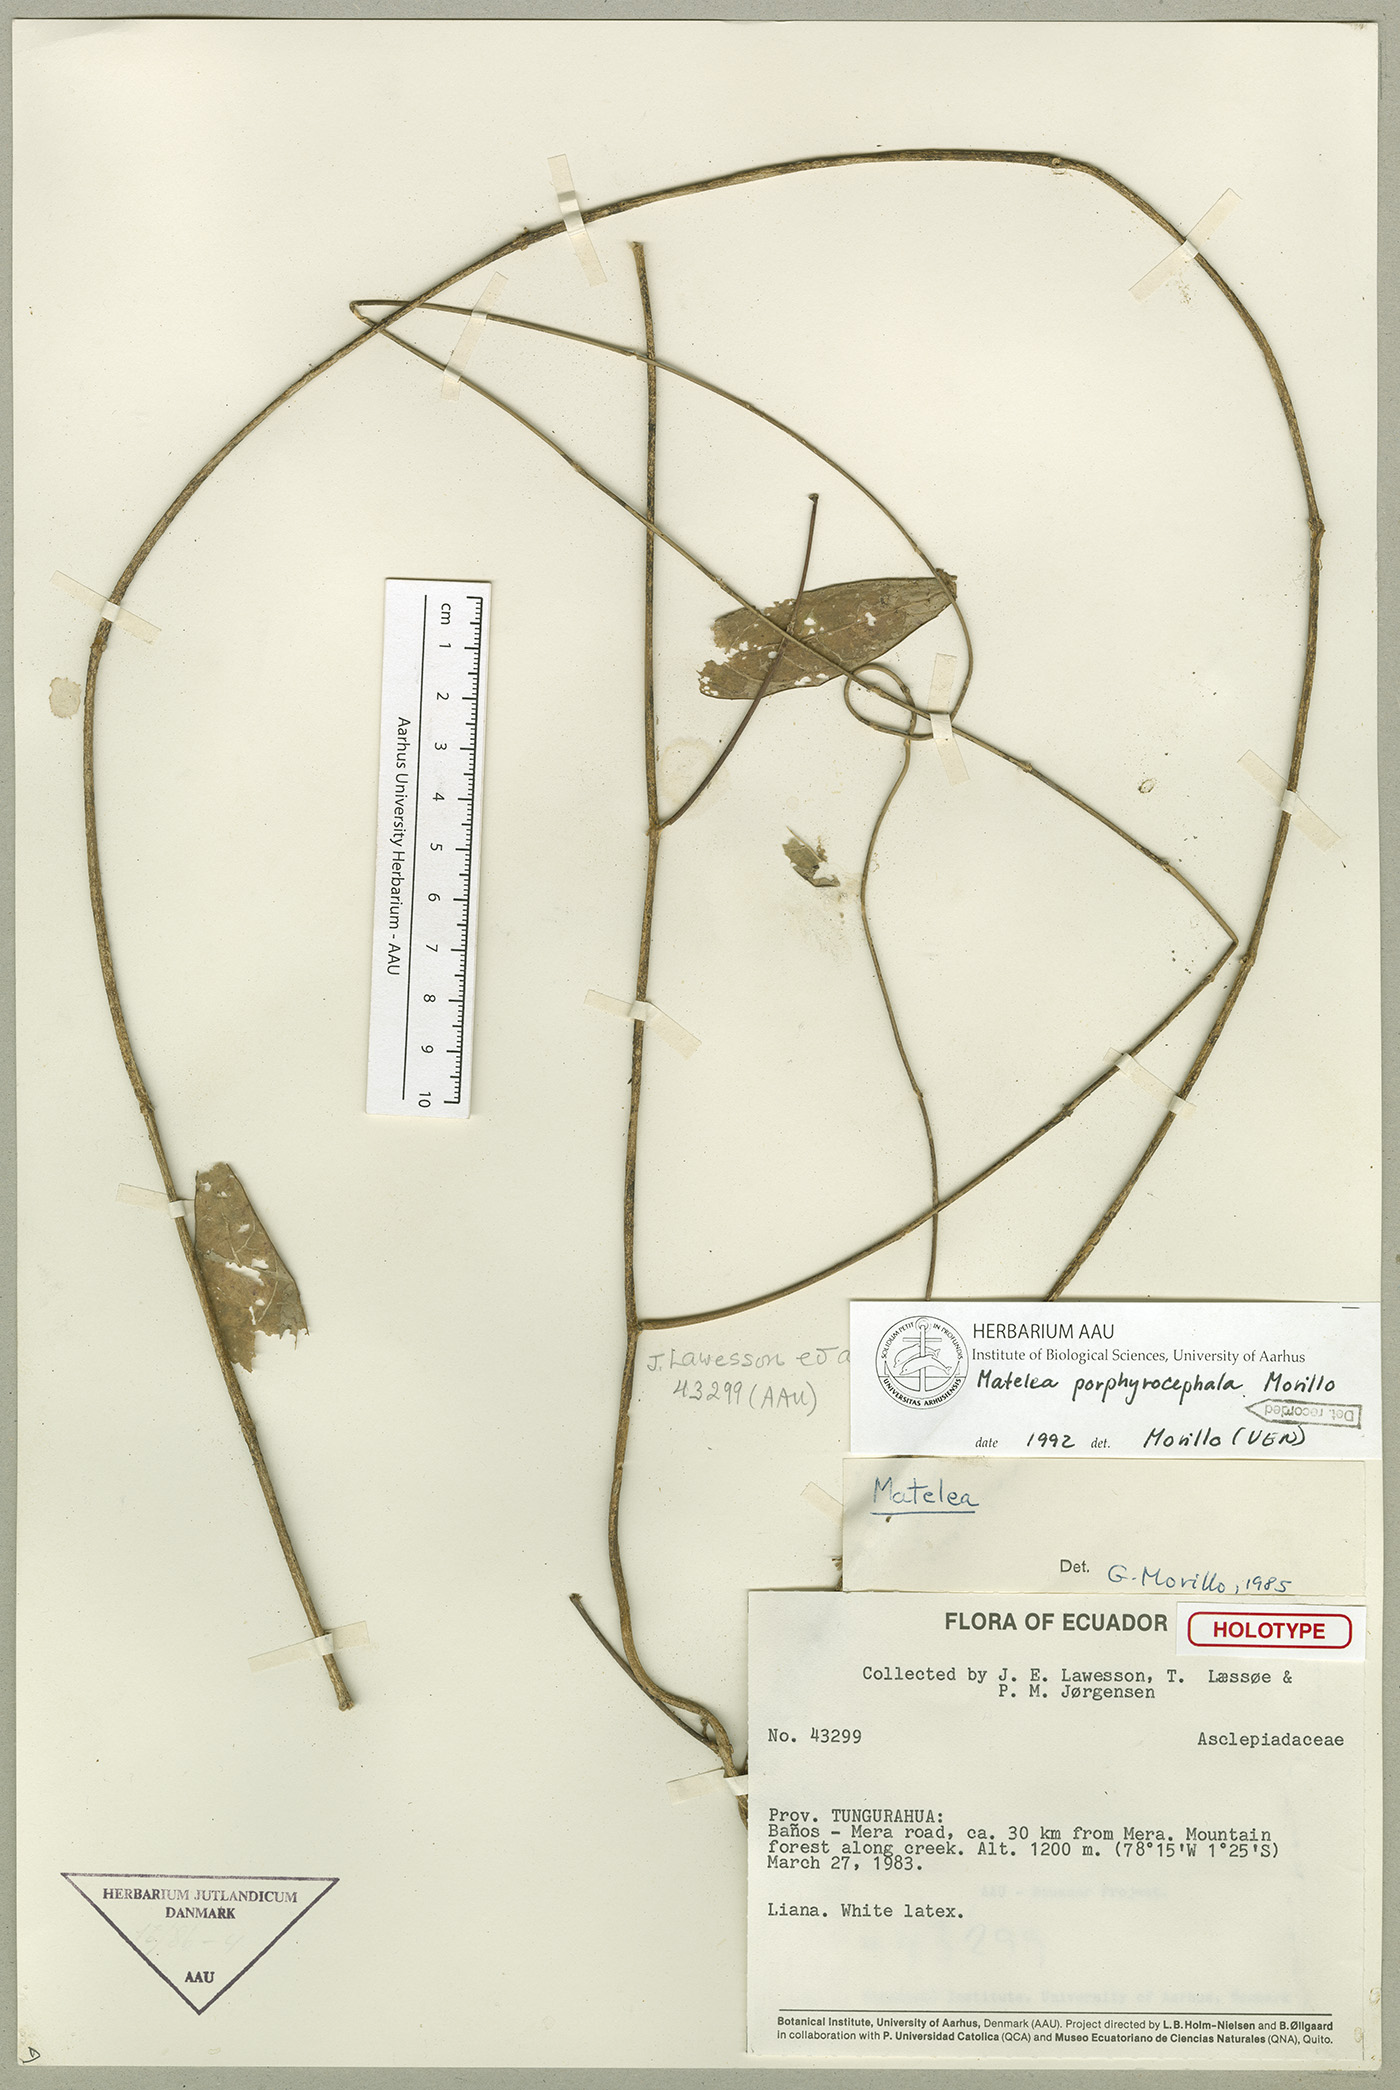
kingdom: Plantae
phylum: Tracheophyta
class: Magnoliopsida
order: Gentianales
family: Apocynaceae
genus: Matelea
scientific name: Matelea porphyrocephala
